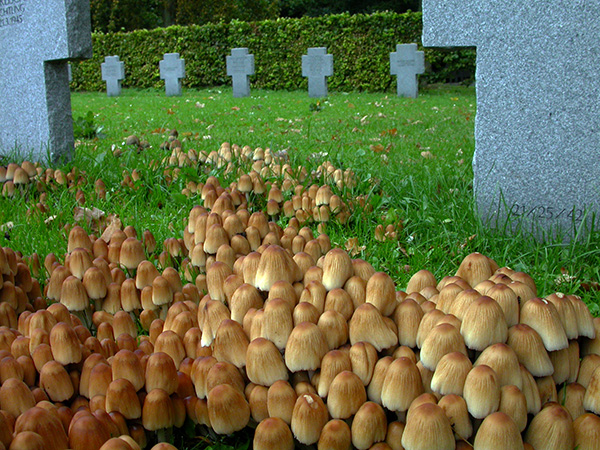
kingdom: Fungi
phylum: Basidiomycota
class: Agaricomycetes
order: Agaricales
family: Psathyrellaceae
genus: Coprinellus
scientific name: Coprinellus micaceus
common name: glimmer-blækhat
